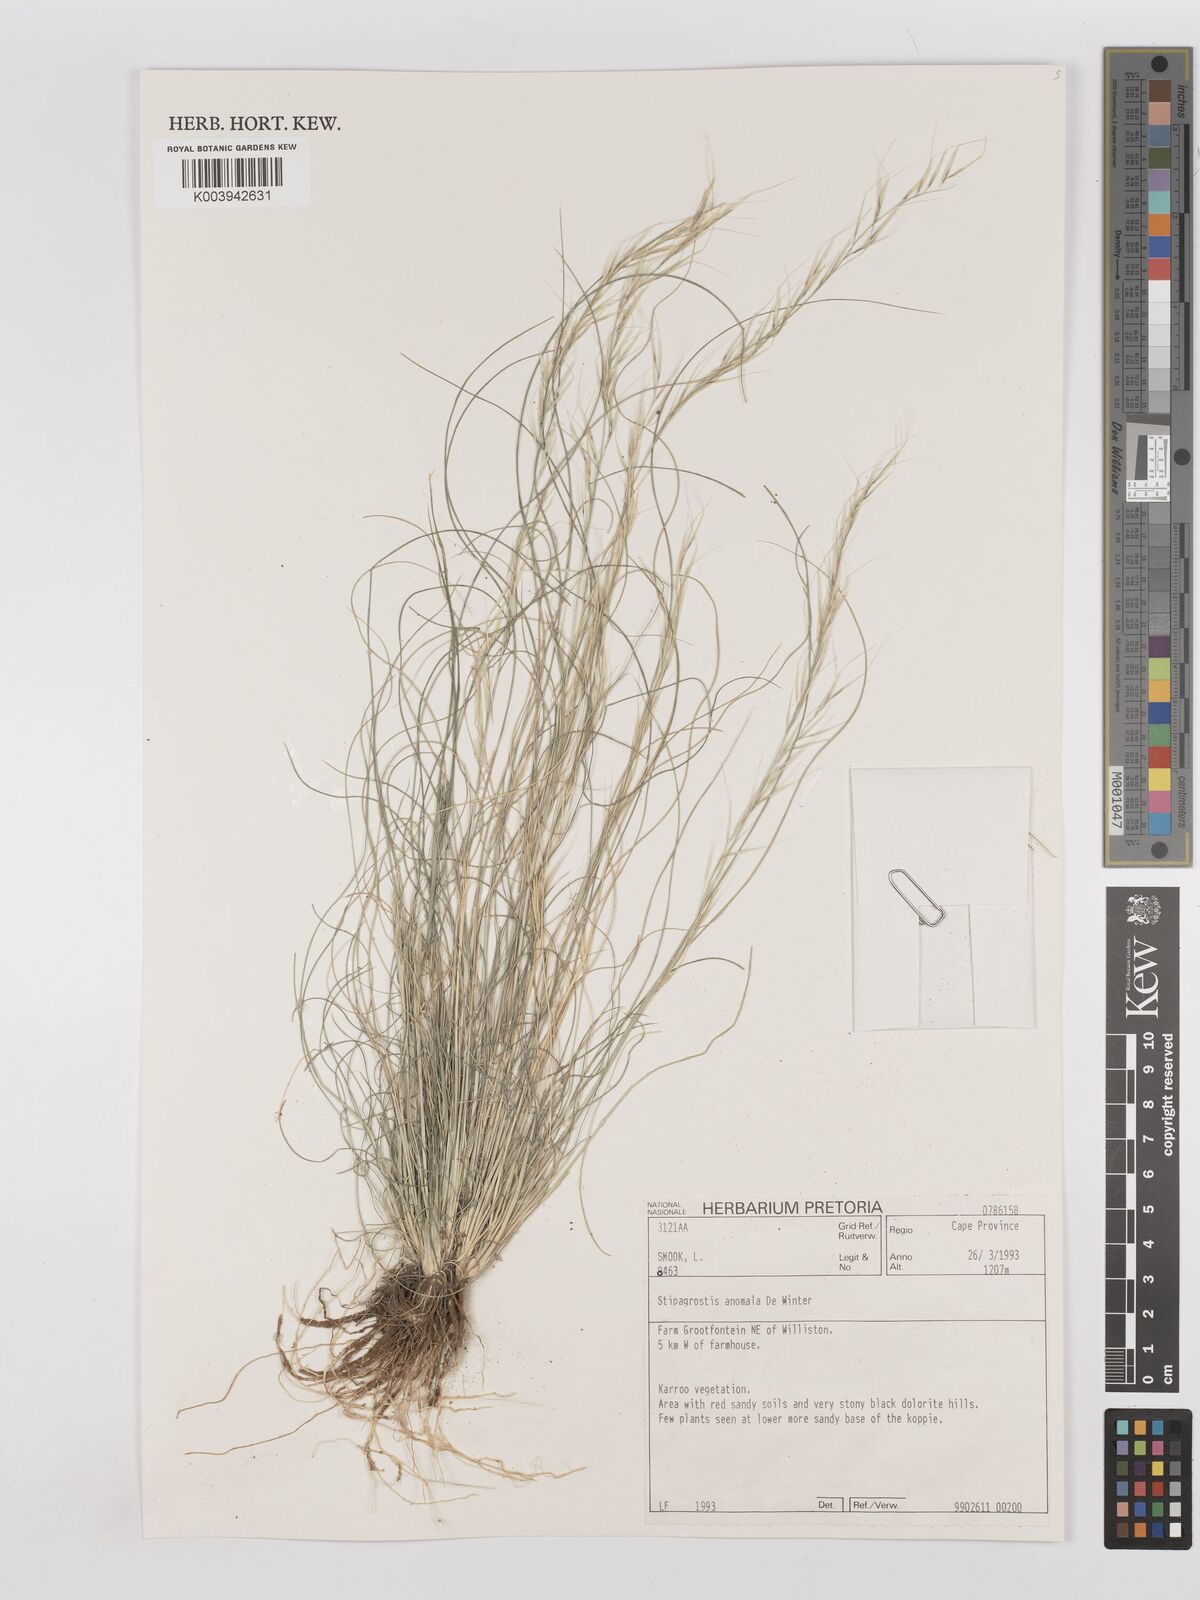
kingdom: Plantae
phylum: Tracheophyta
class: Liliopsida
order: Poales
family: Poaceae
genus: Stipagrostis
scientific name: Stipagrostis anomala
